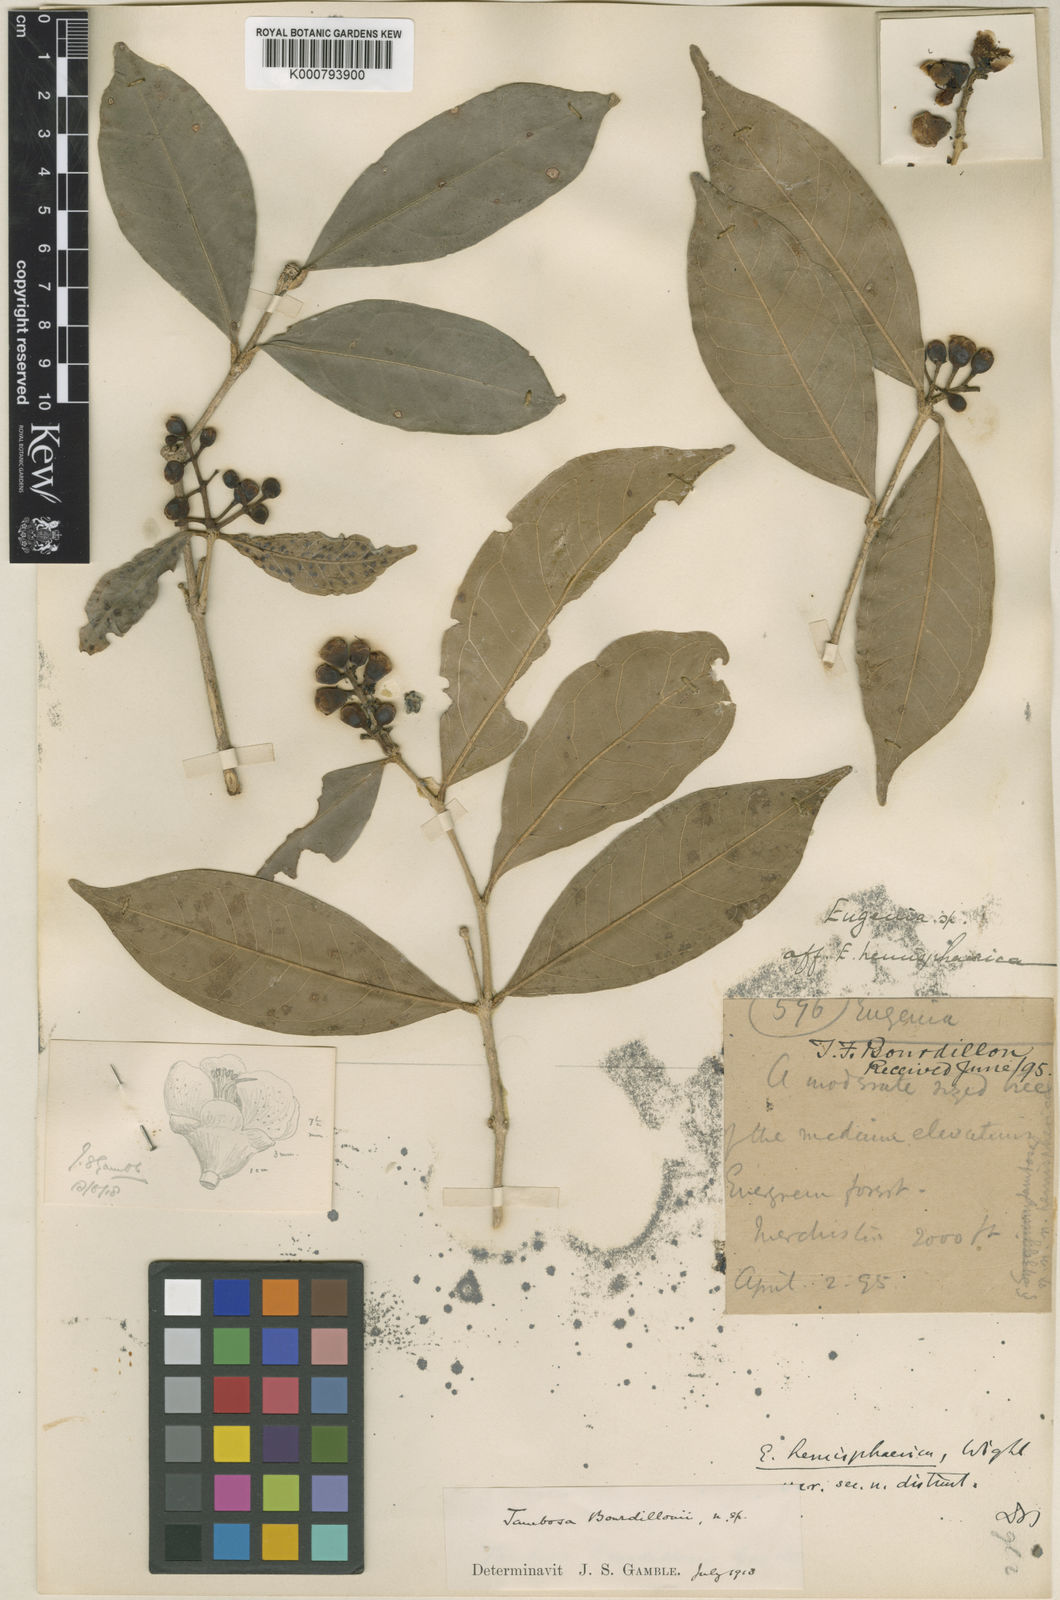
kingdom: Plantae
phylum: Tracheophyta
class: Magnoliopsida
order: Myrtales
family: Myrtaceae
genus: Syzygium
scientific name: Syzygium bourdillonii
